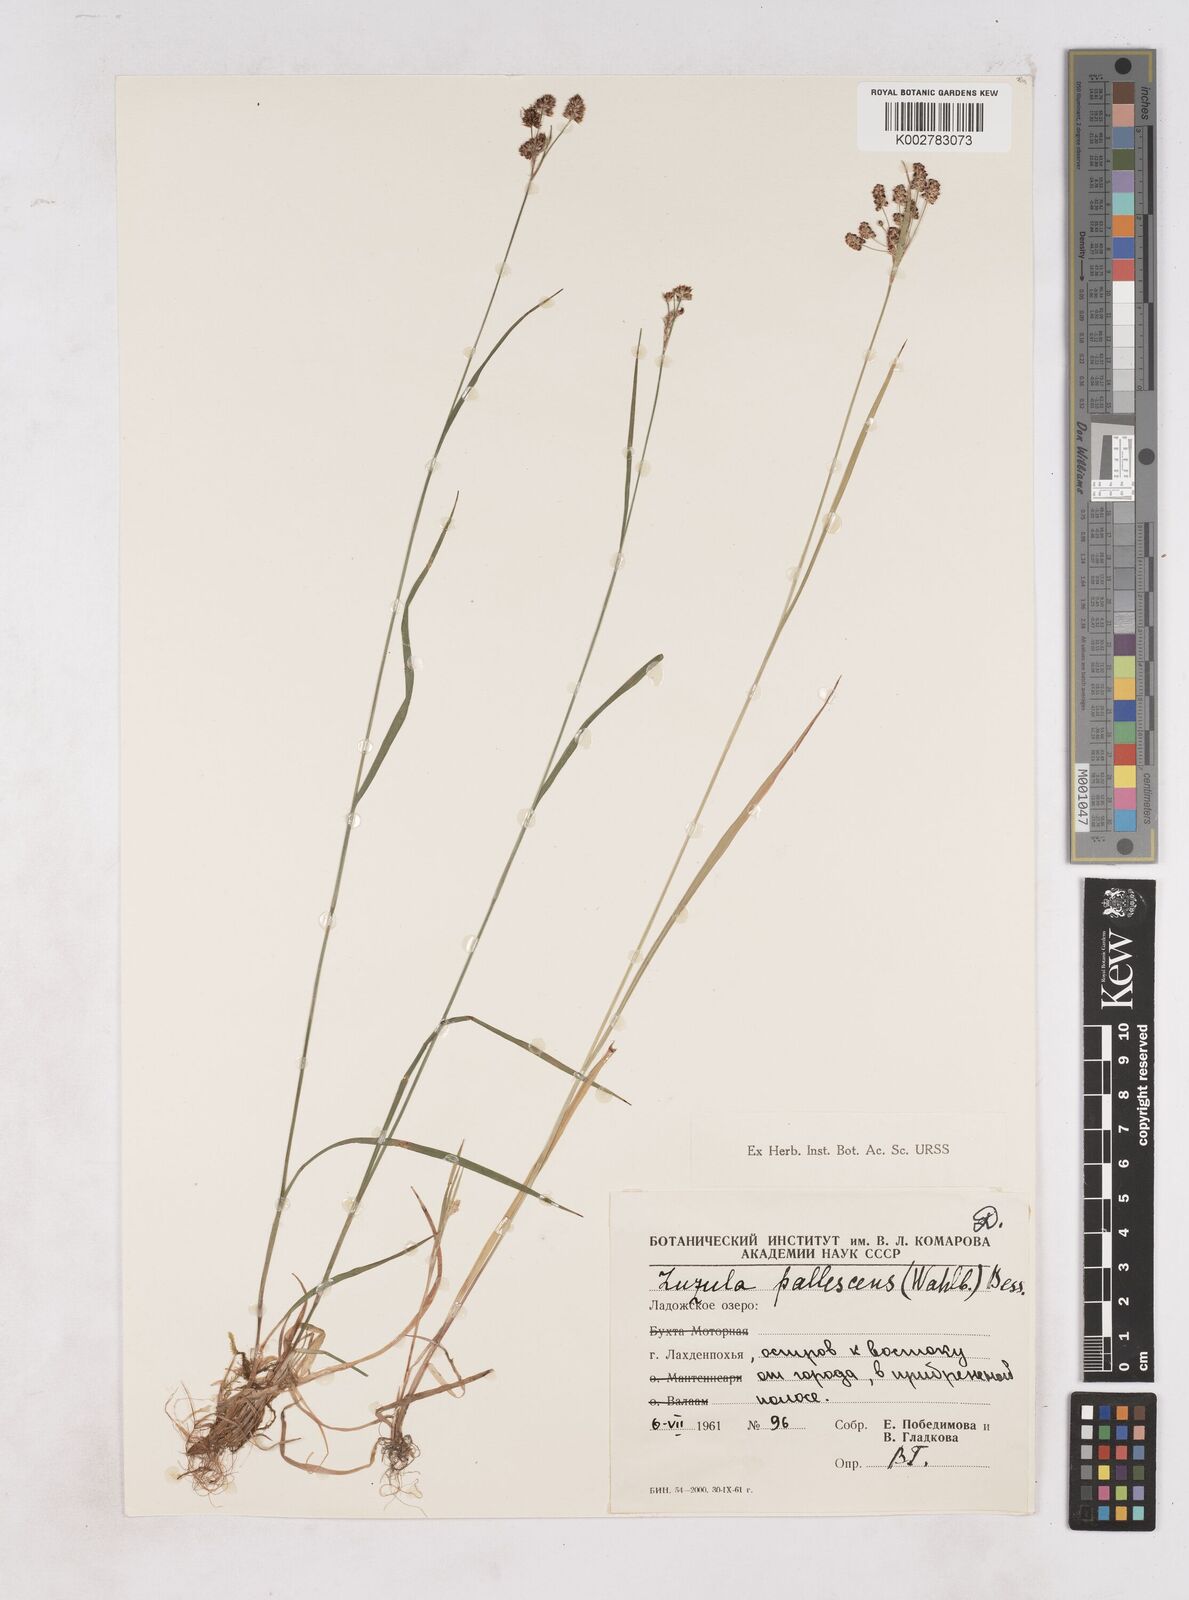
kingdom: Plantae
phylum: Tracheophyta
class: Liliopsida
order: Poales
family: Juncaceae
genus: Luzula
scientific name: Luzula pallescens
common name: Fen wood-rush
